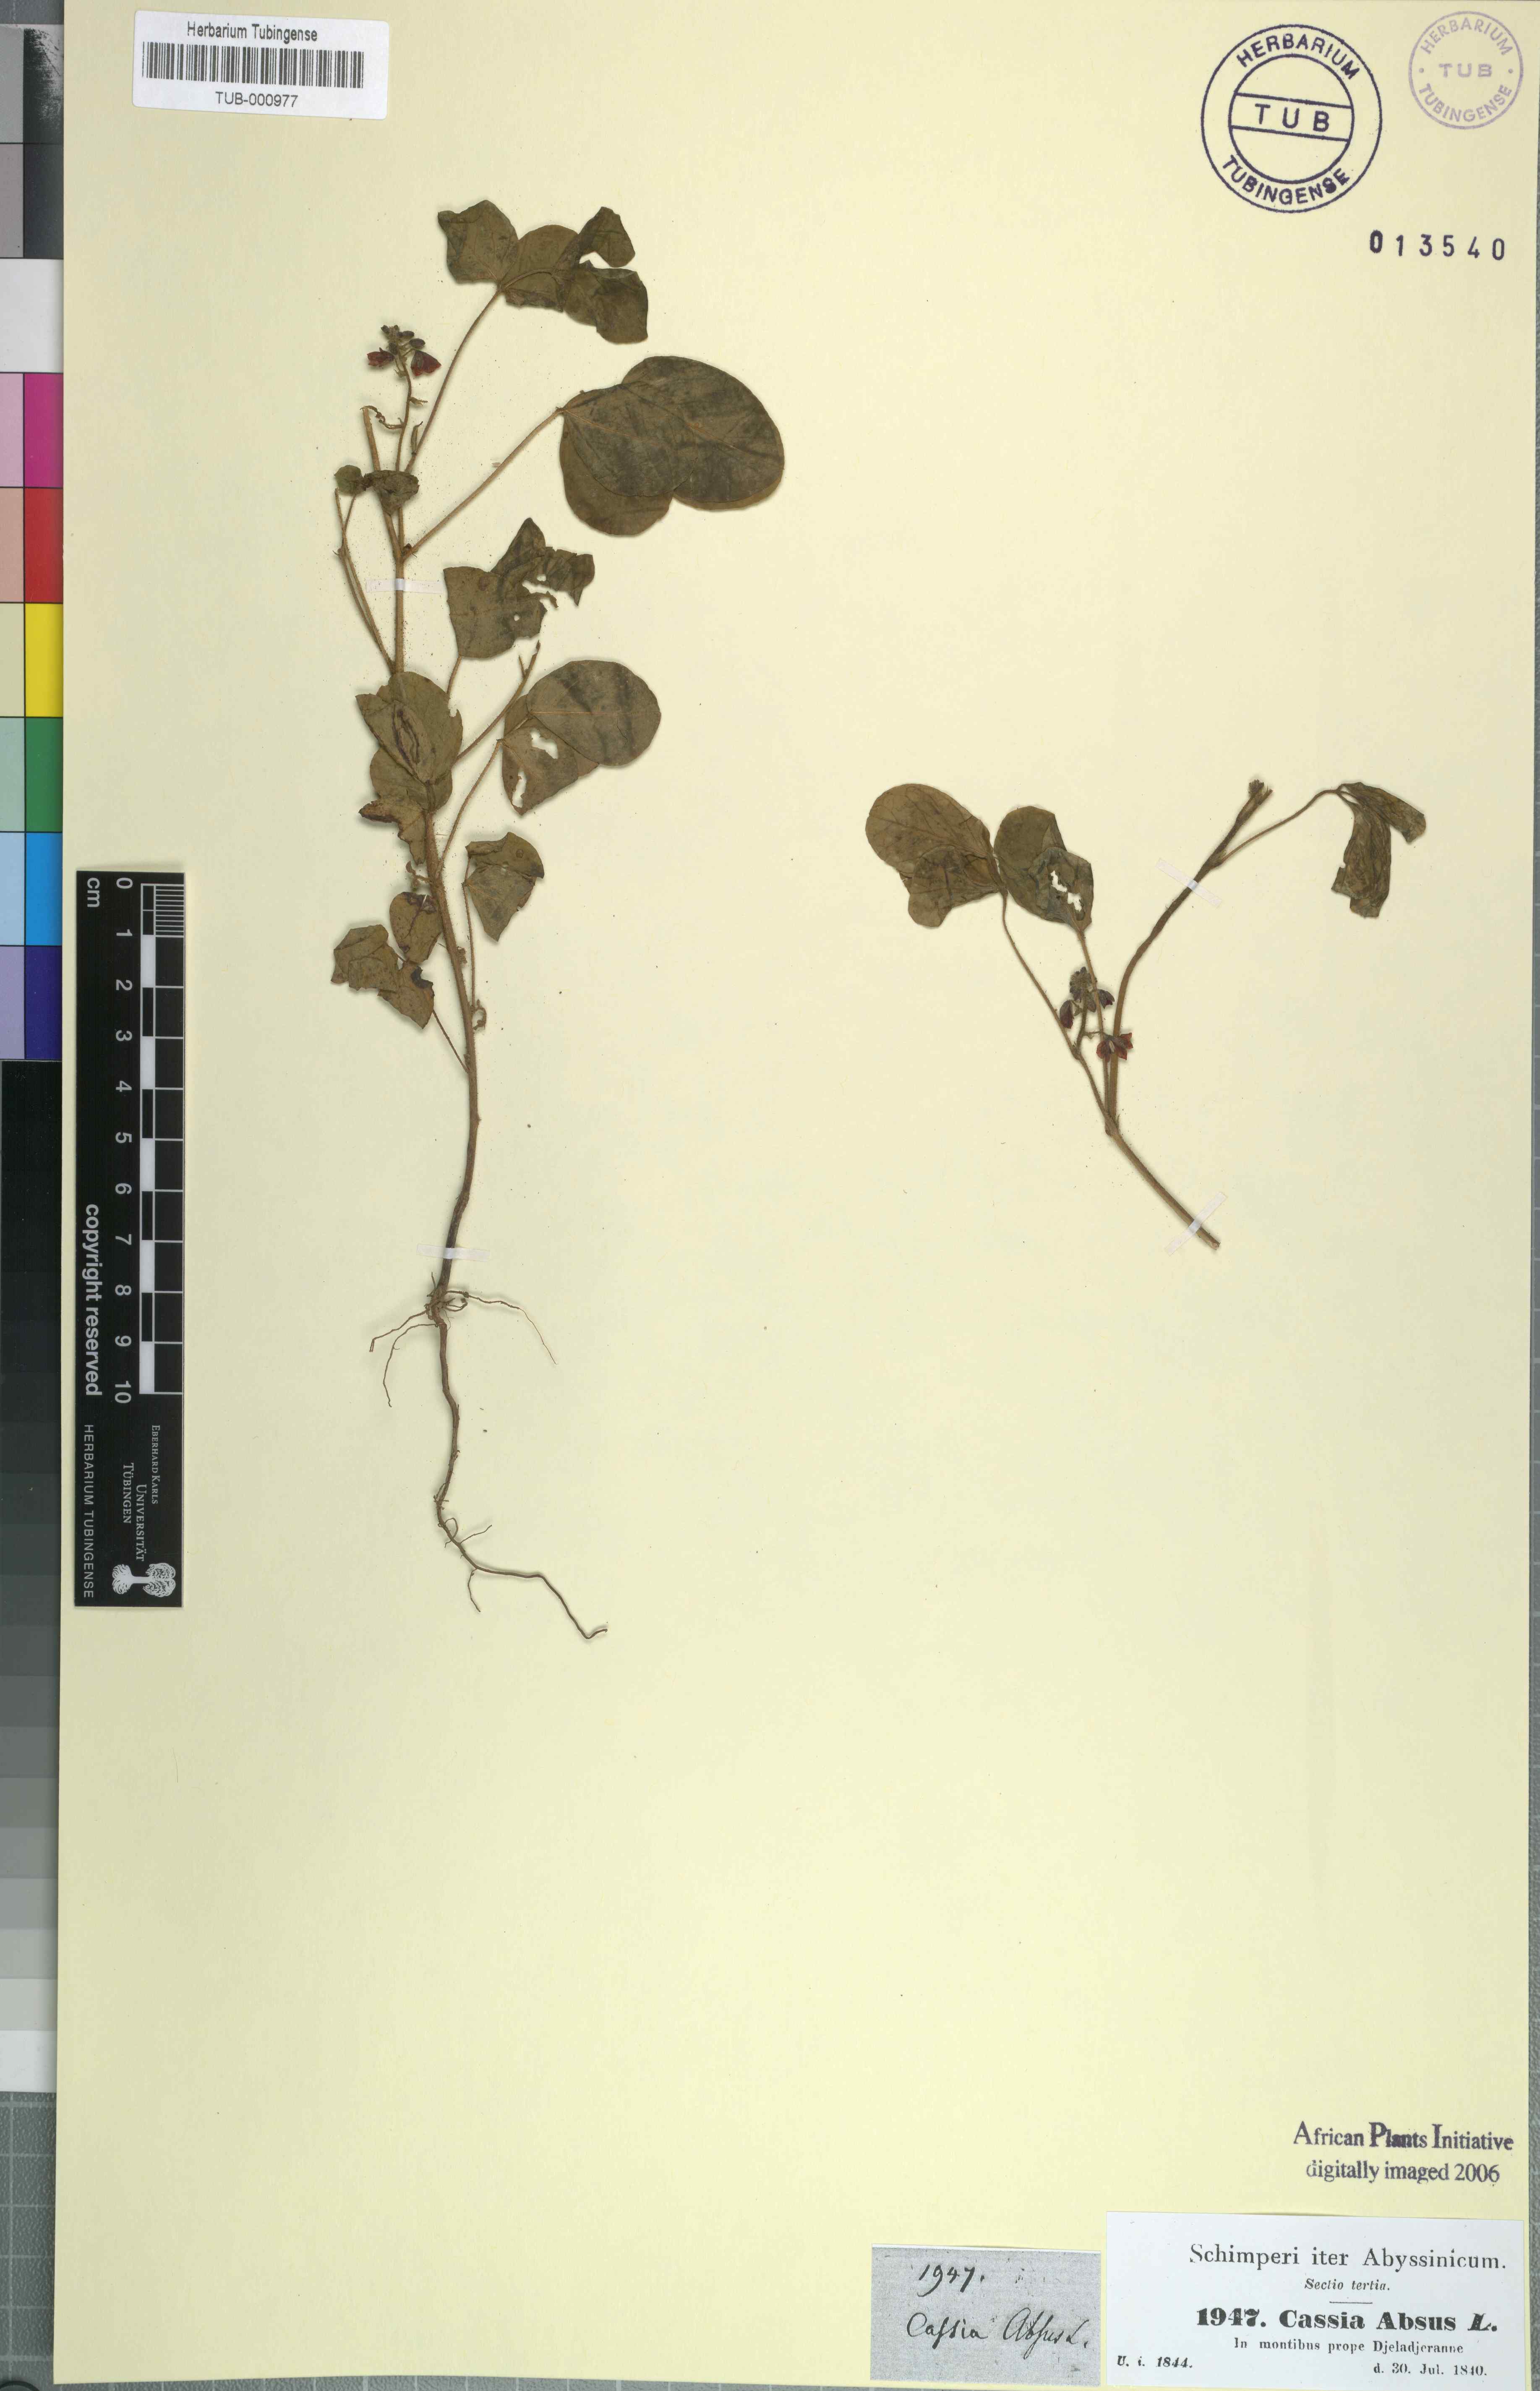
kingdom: Plantae
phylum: Tracheophyta
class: Magnoliopsida
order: Fabales
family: Fabaceae
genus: Chamaecrista
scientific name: Chamaecrista absus
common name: Tropical sensitive pea
